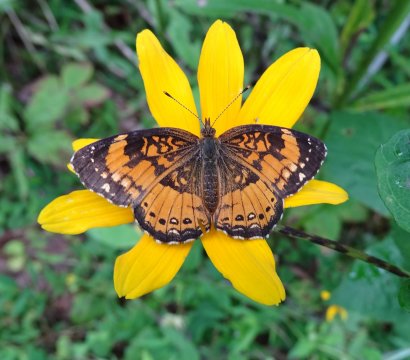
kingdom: Animalia
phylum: Arthropoda
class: Insecta
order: Lepidoptera
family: Nymphalidae
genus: Chlosyne
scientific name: Chlosyne nycteis
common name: Silvery Checkerspot
